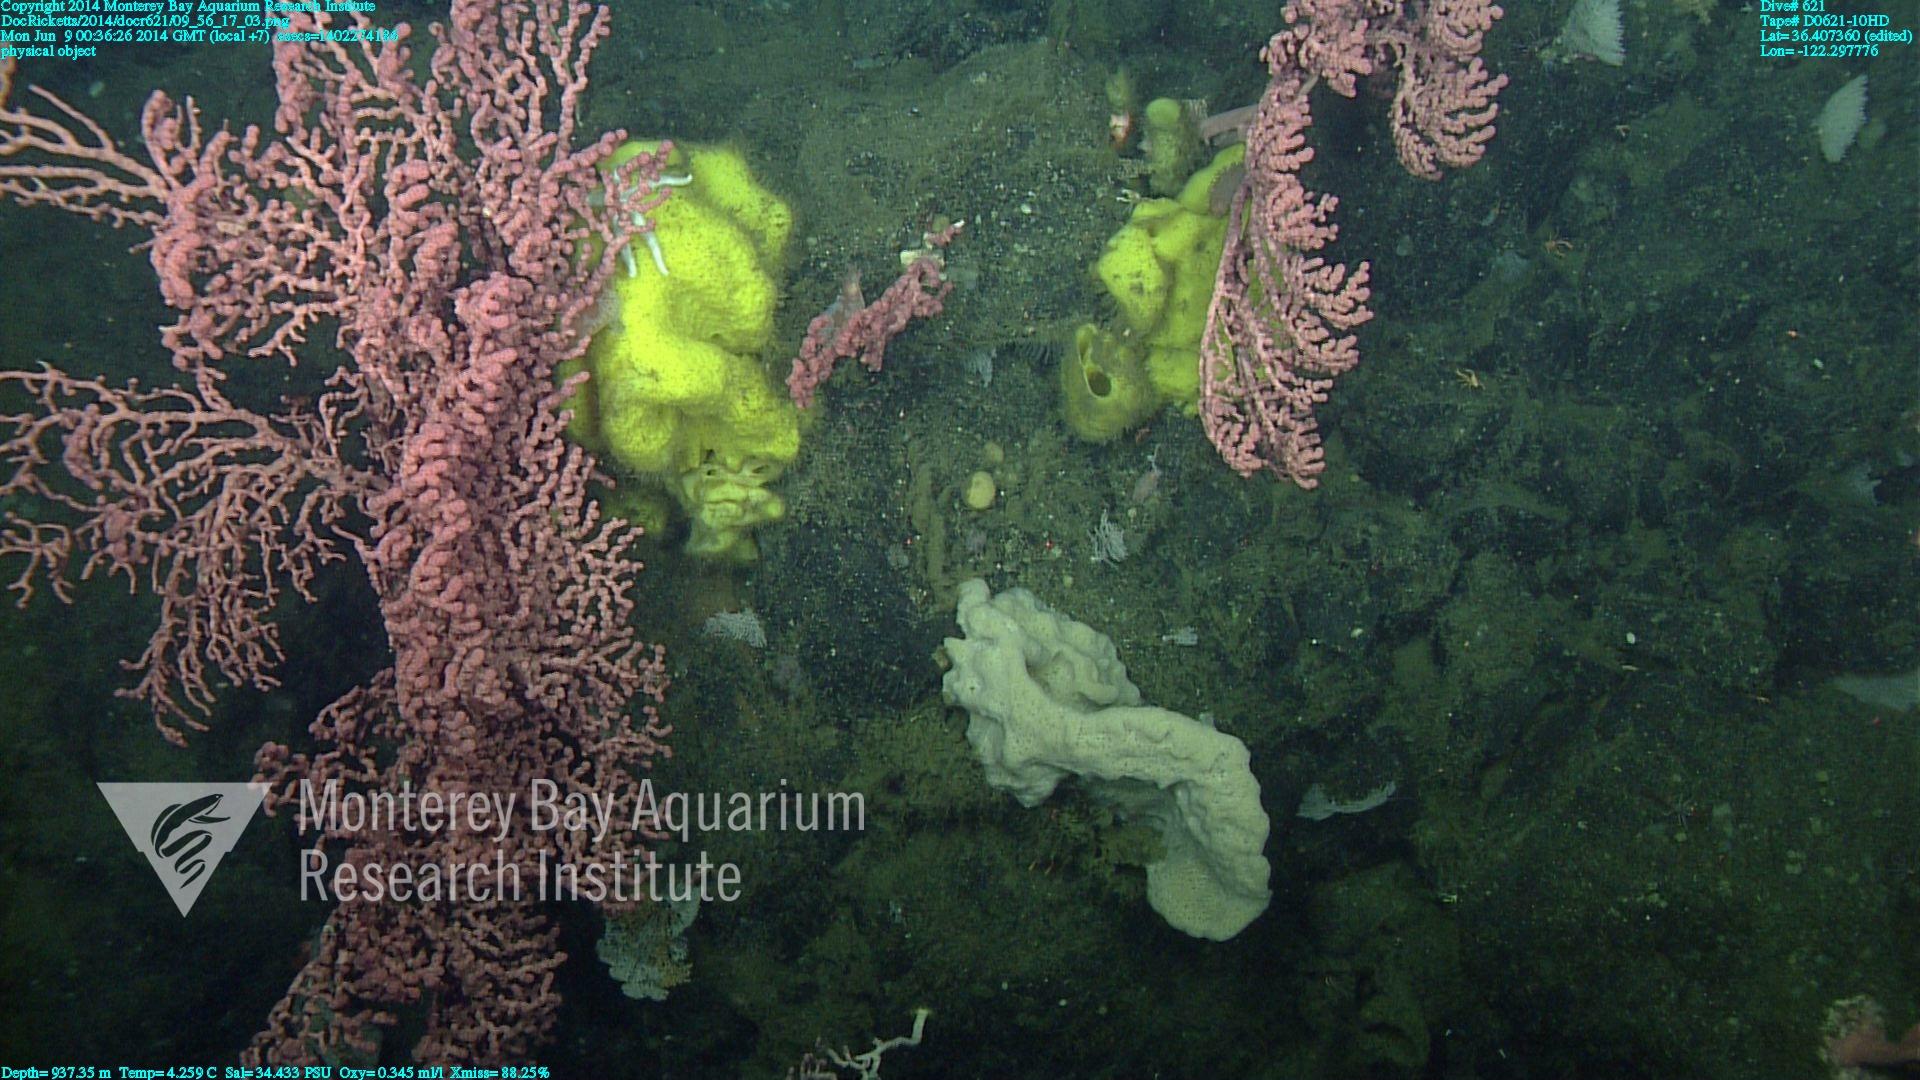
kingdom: Animalia
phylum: Cnidaria
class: Anthozoa
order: Scleralcyonacea
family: Coralliidae
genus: Paragorgia
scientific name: Paragorgia arborea
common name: Bubble gum coral
